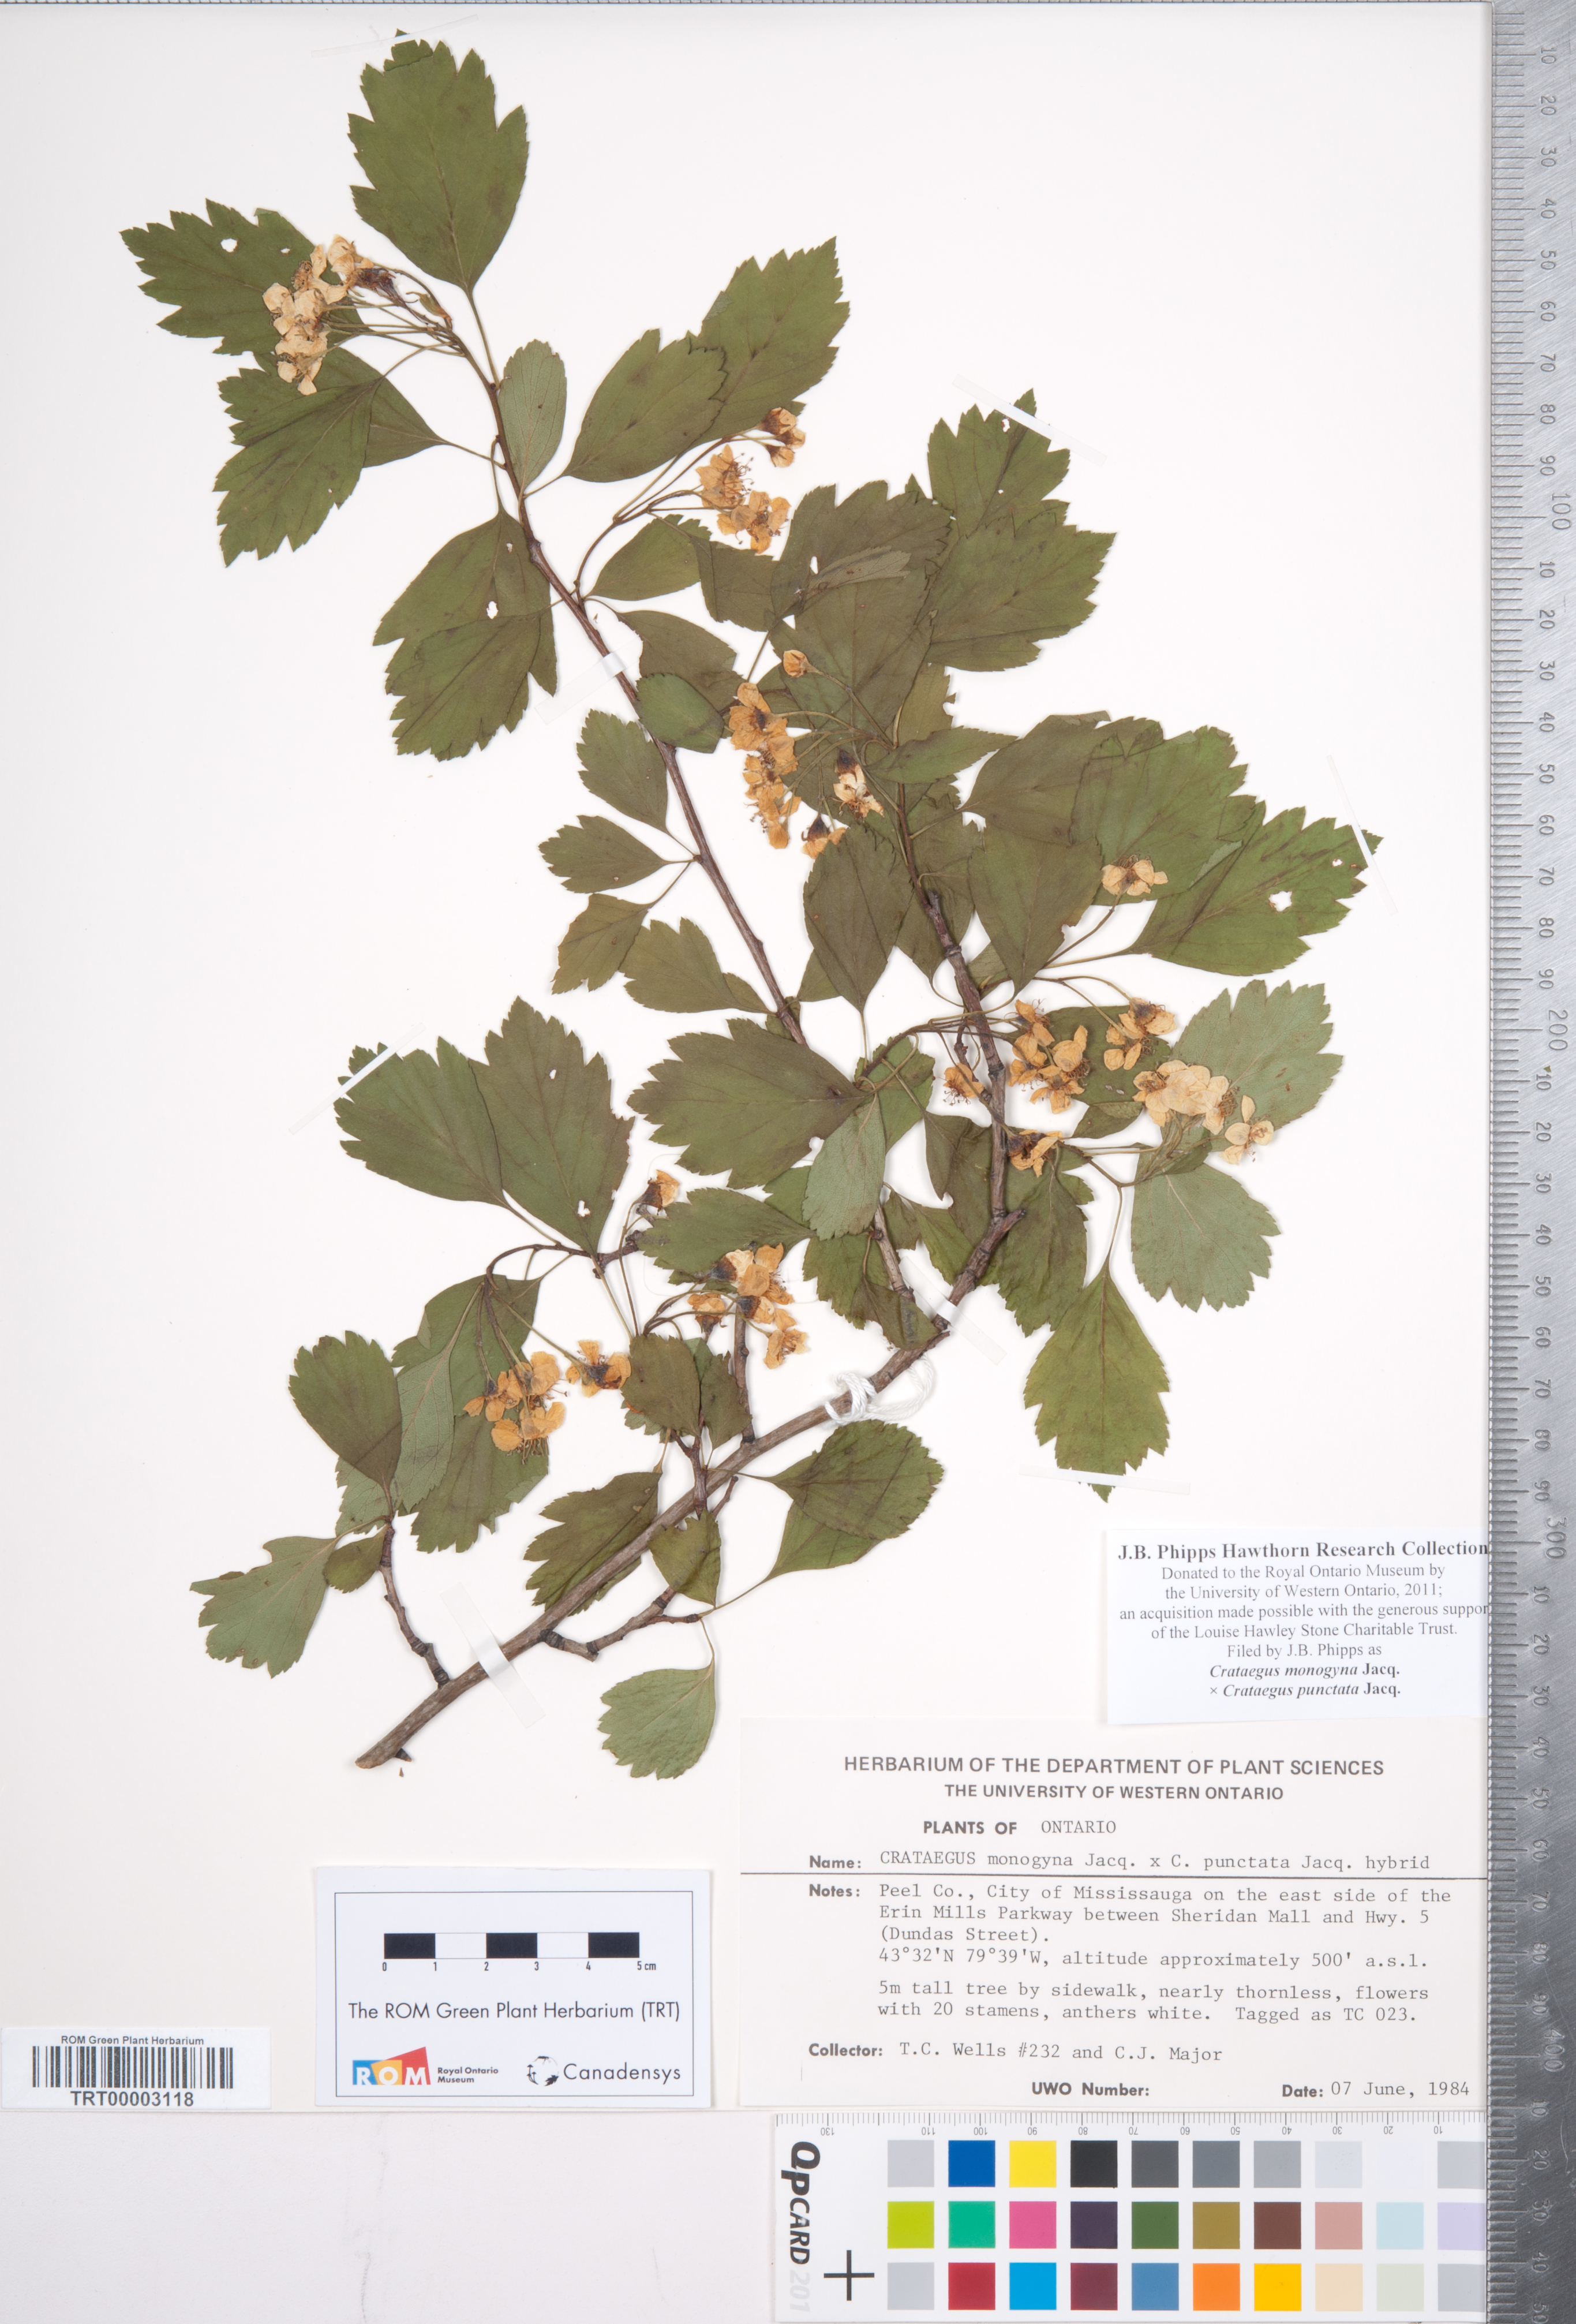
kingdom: Plantae
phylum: Tracheophyta
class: Magnoliopsida
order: Rosales
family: Rosaceae
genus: Crataegus
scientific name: Crataegus monogyna
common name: Hawthorn
